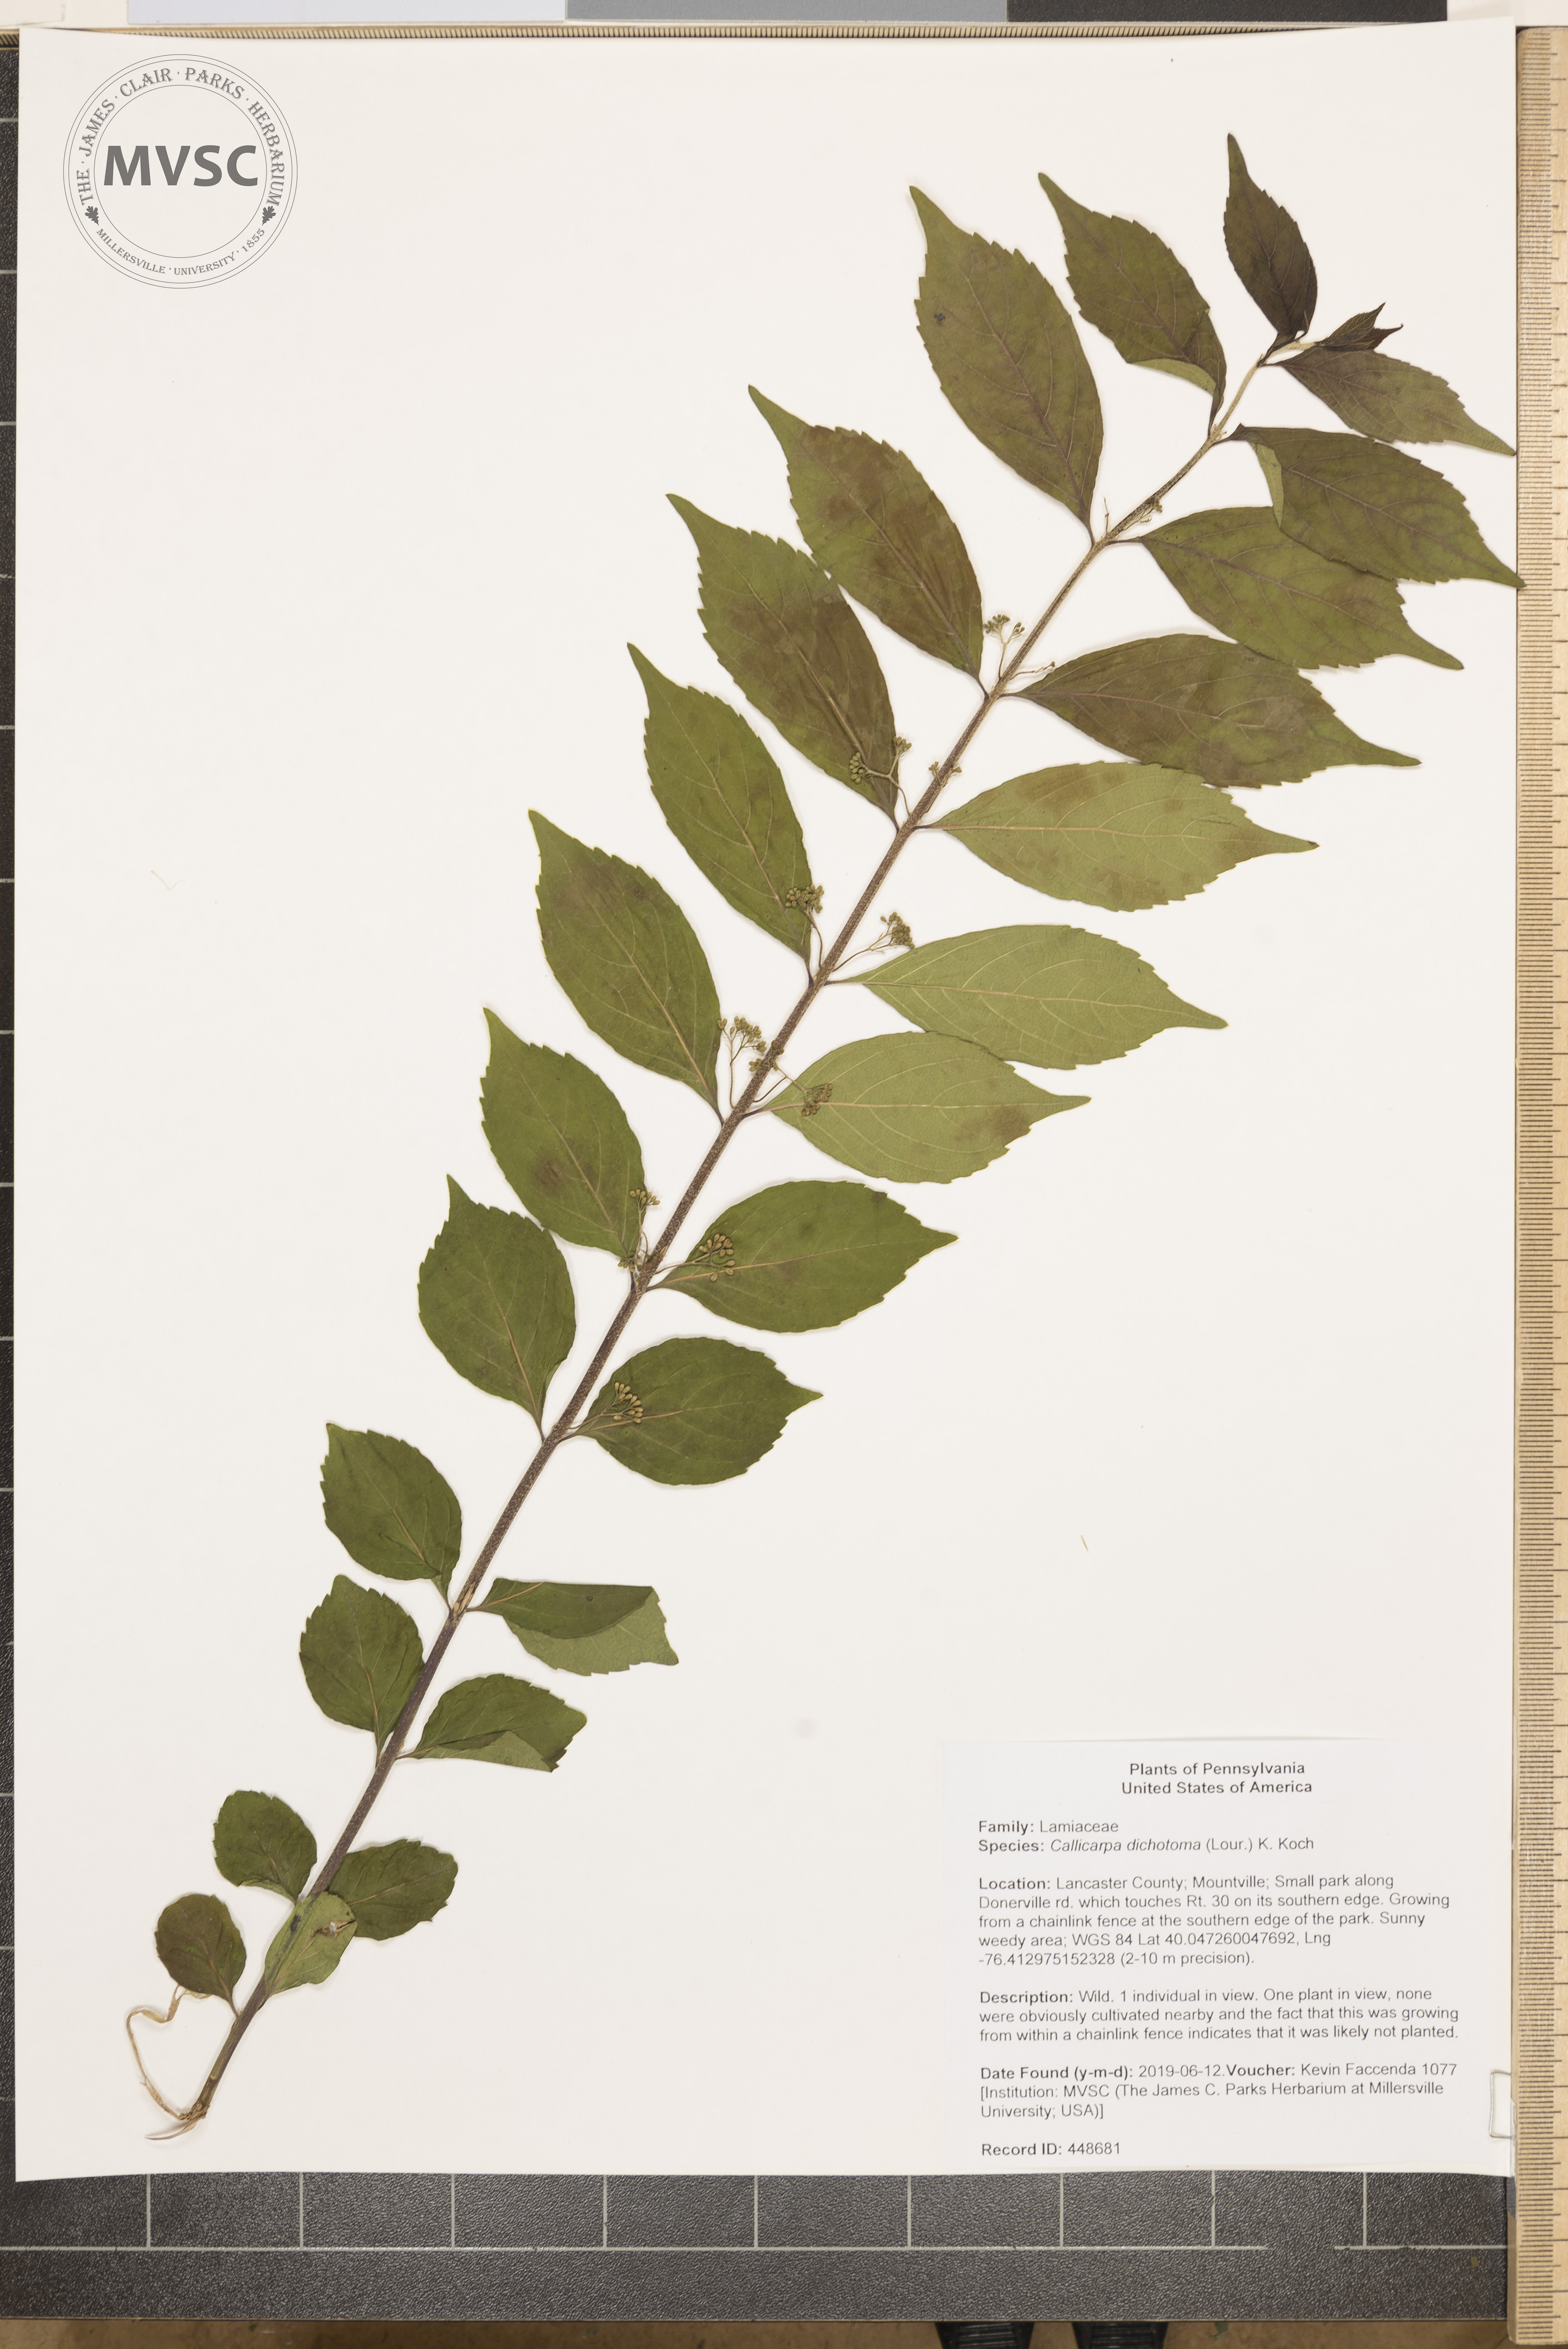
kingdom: Plantae
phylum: Tracheophyta
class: Magnoliopsida
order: Lamiales
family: Lamiaceae
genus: Callicarpa
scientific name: Callicarpa dichotoma
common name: Purple beauty-berry
